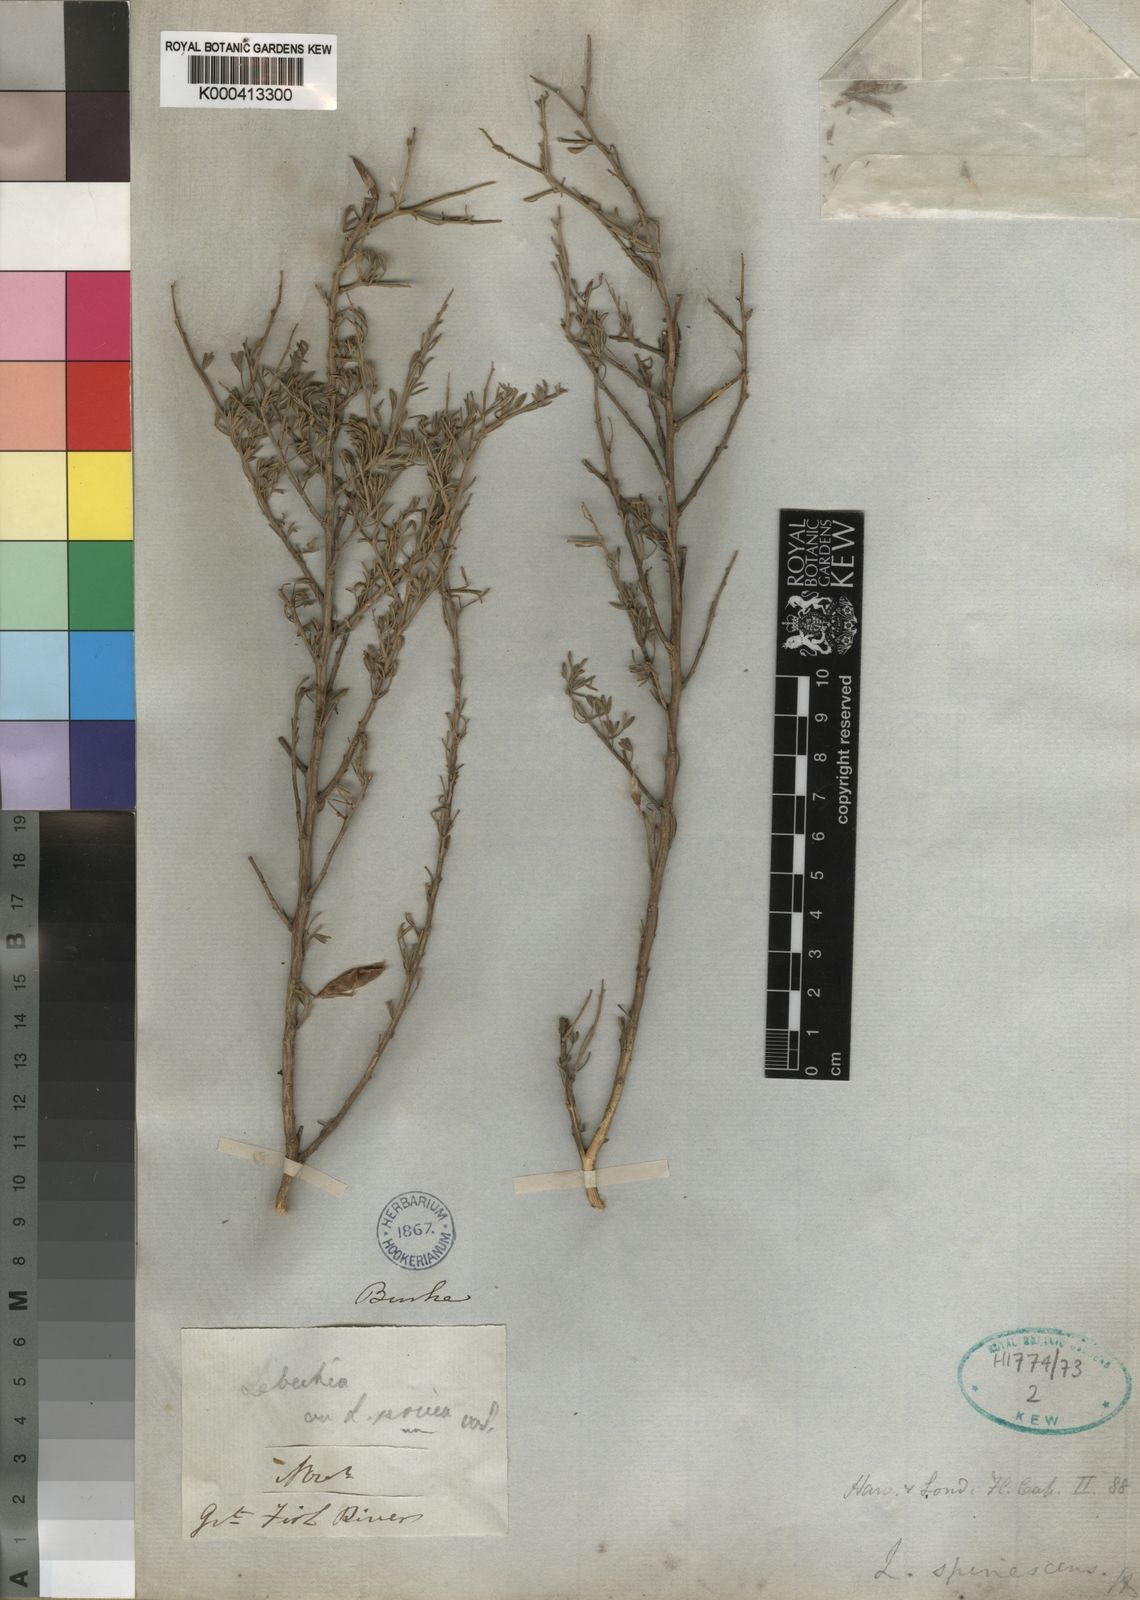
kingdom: Plantae
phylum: Tracheophyta
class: Magnoliopsida
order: Fabales
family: Fabaceae
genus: Calobota
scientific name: Calobota spinescens
